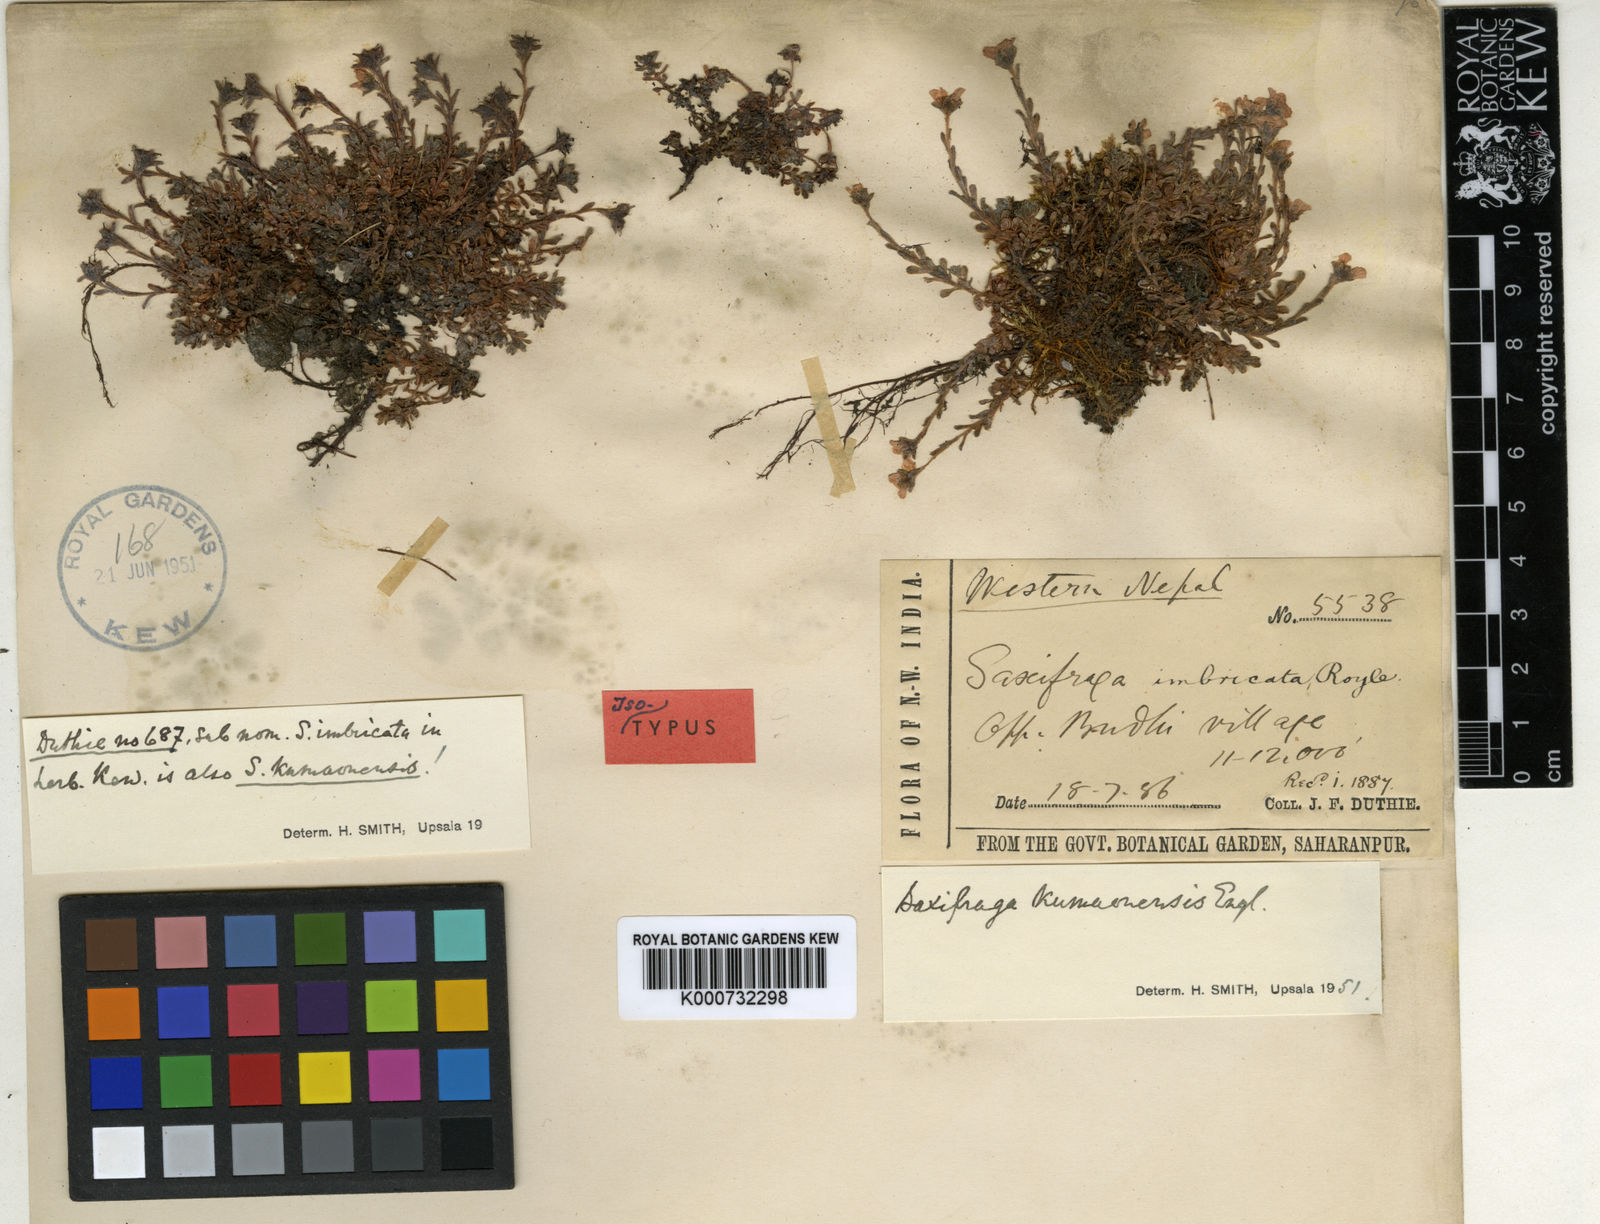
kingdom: Plantae
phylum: Tracheophyta
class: Magnoliopsida
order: Saxifragales
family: Saxifragaceae
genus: Saxifraga
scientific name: Saxifraga kumaunensis
